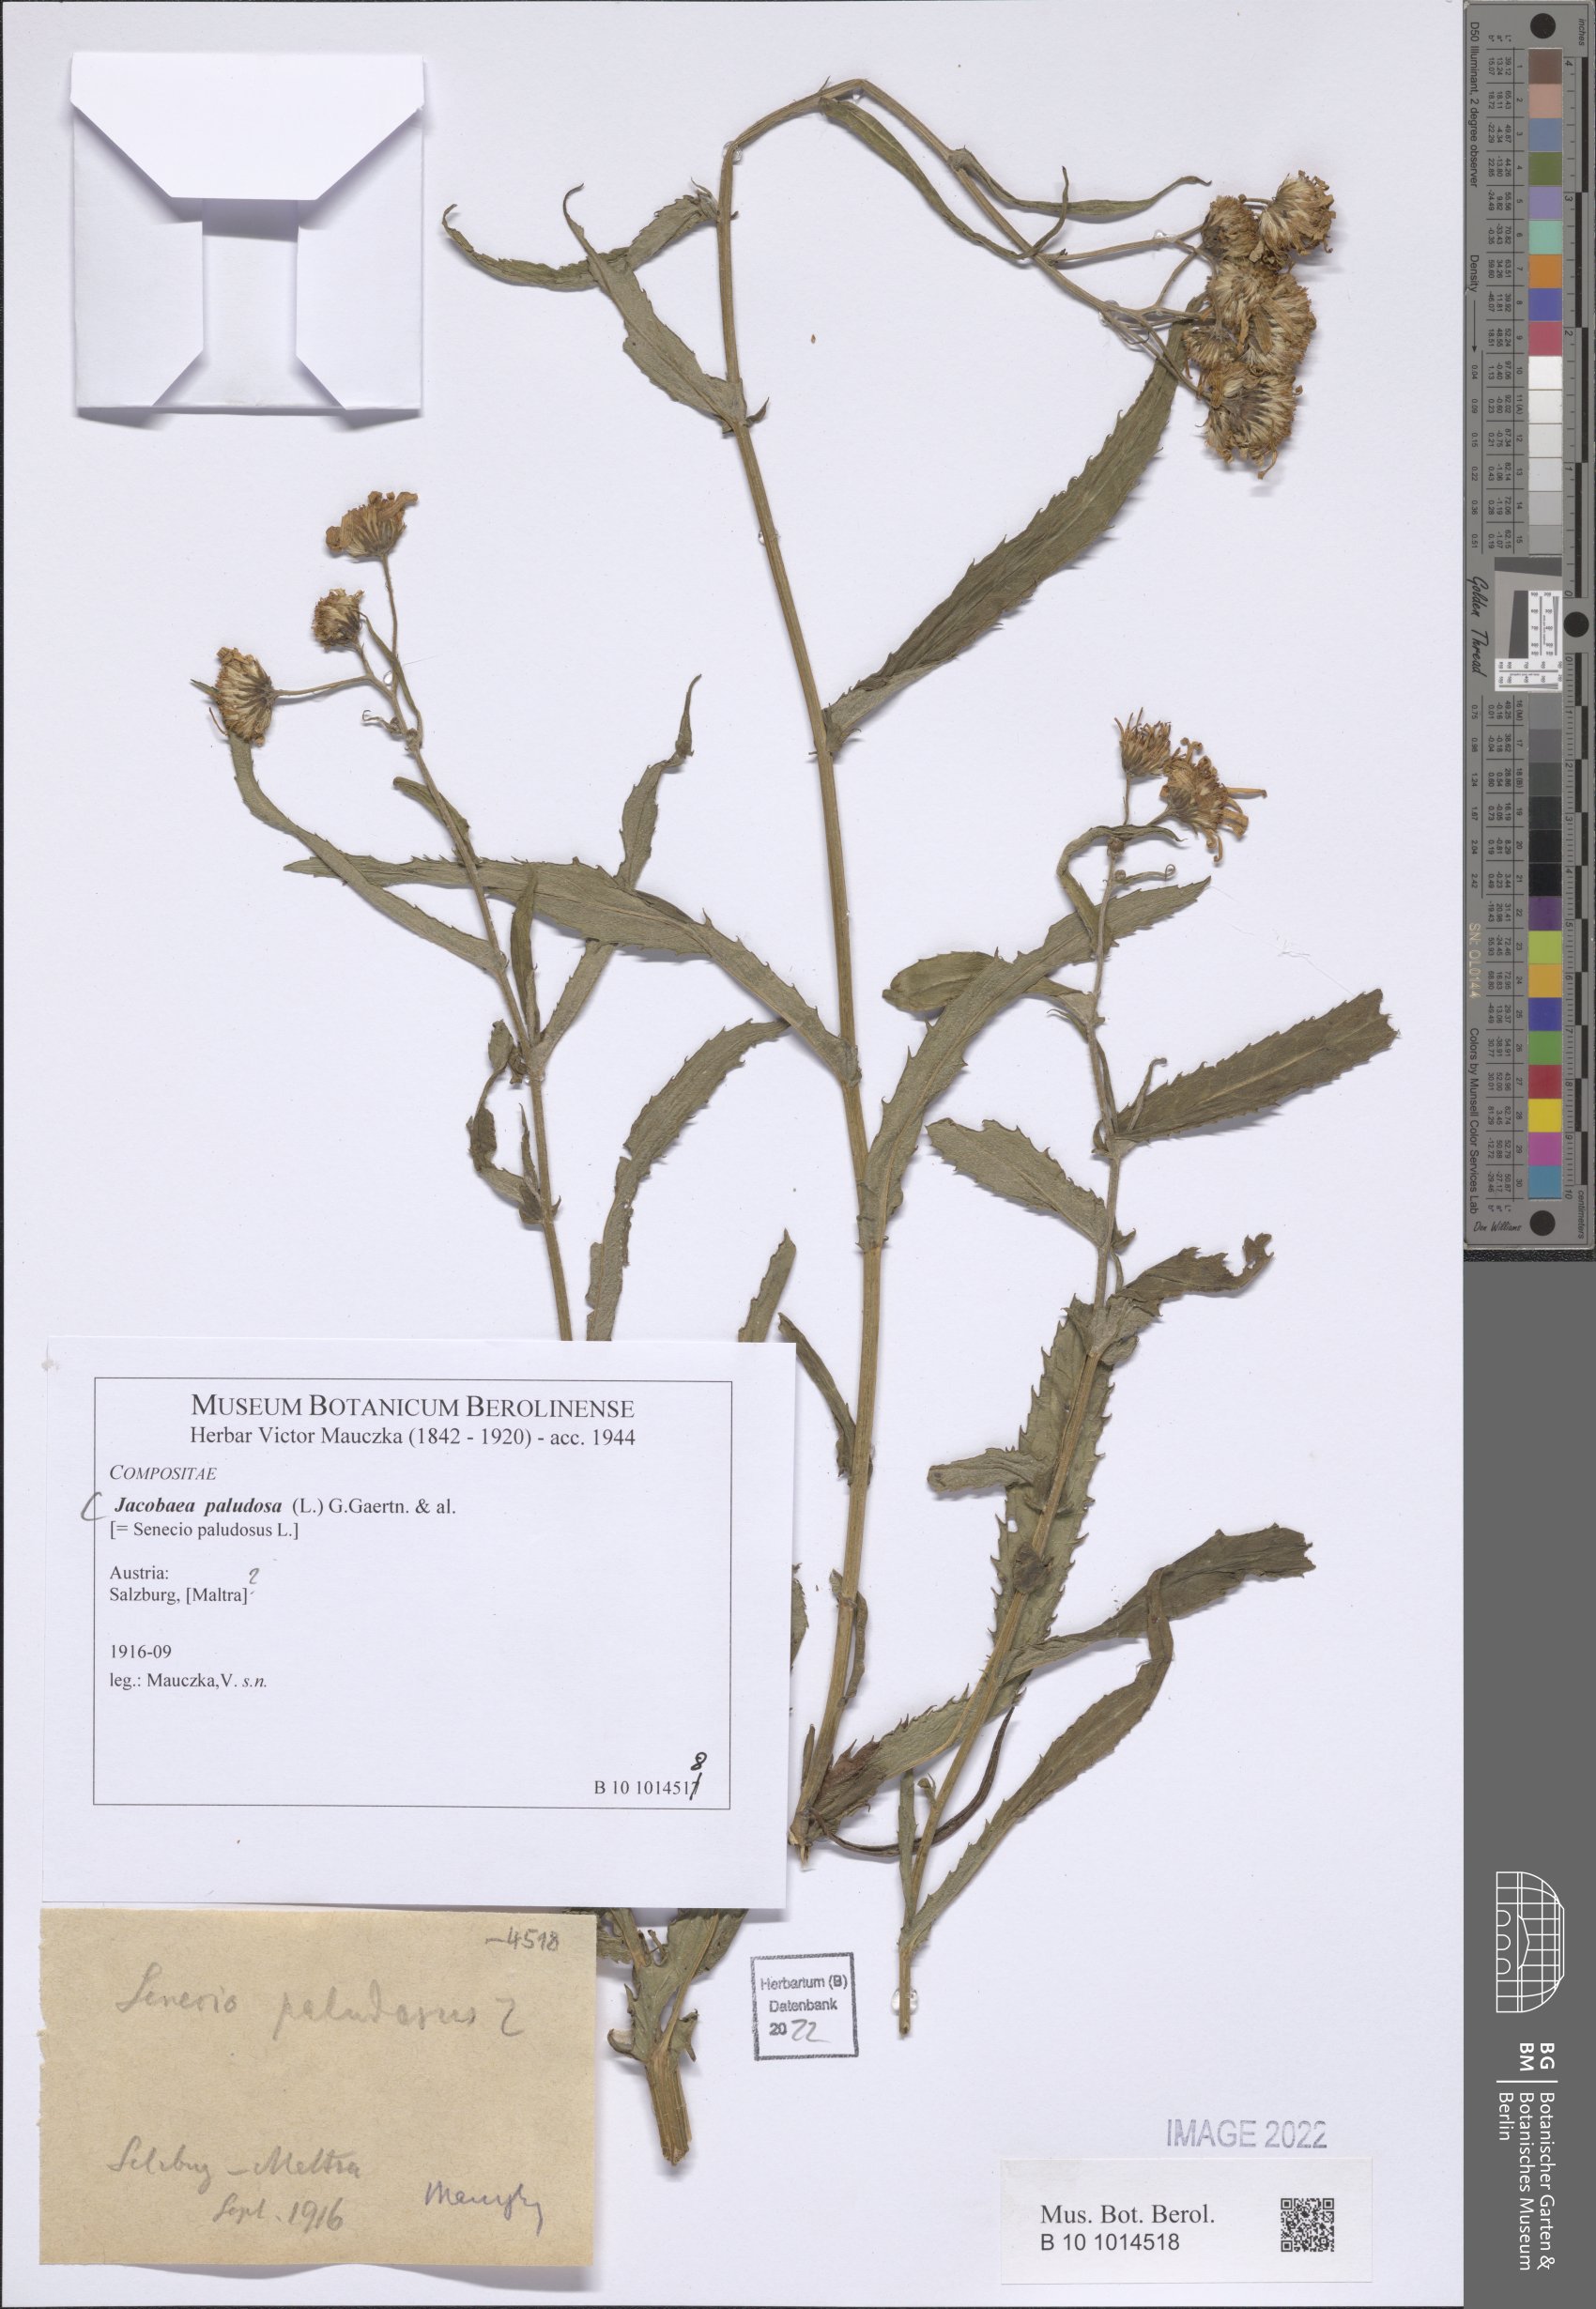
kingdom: Plantae
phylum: Tracheophyta
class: Magnoliopsida
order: Asterales
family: Asteraceae
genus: Jacobaea
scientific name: Jacobaea paludosa
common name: Fen ragwort
